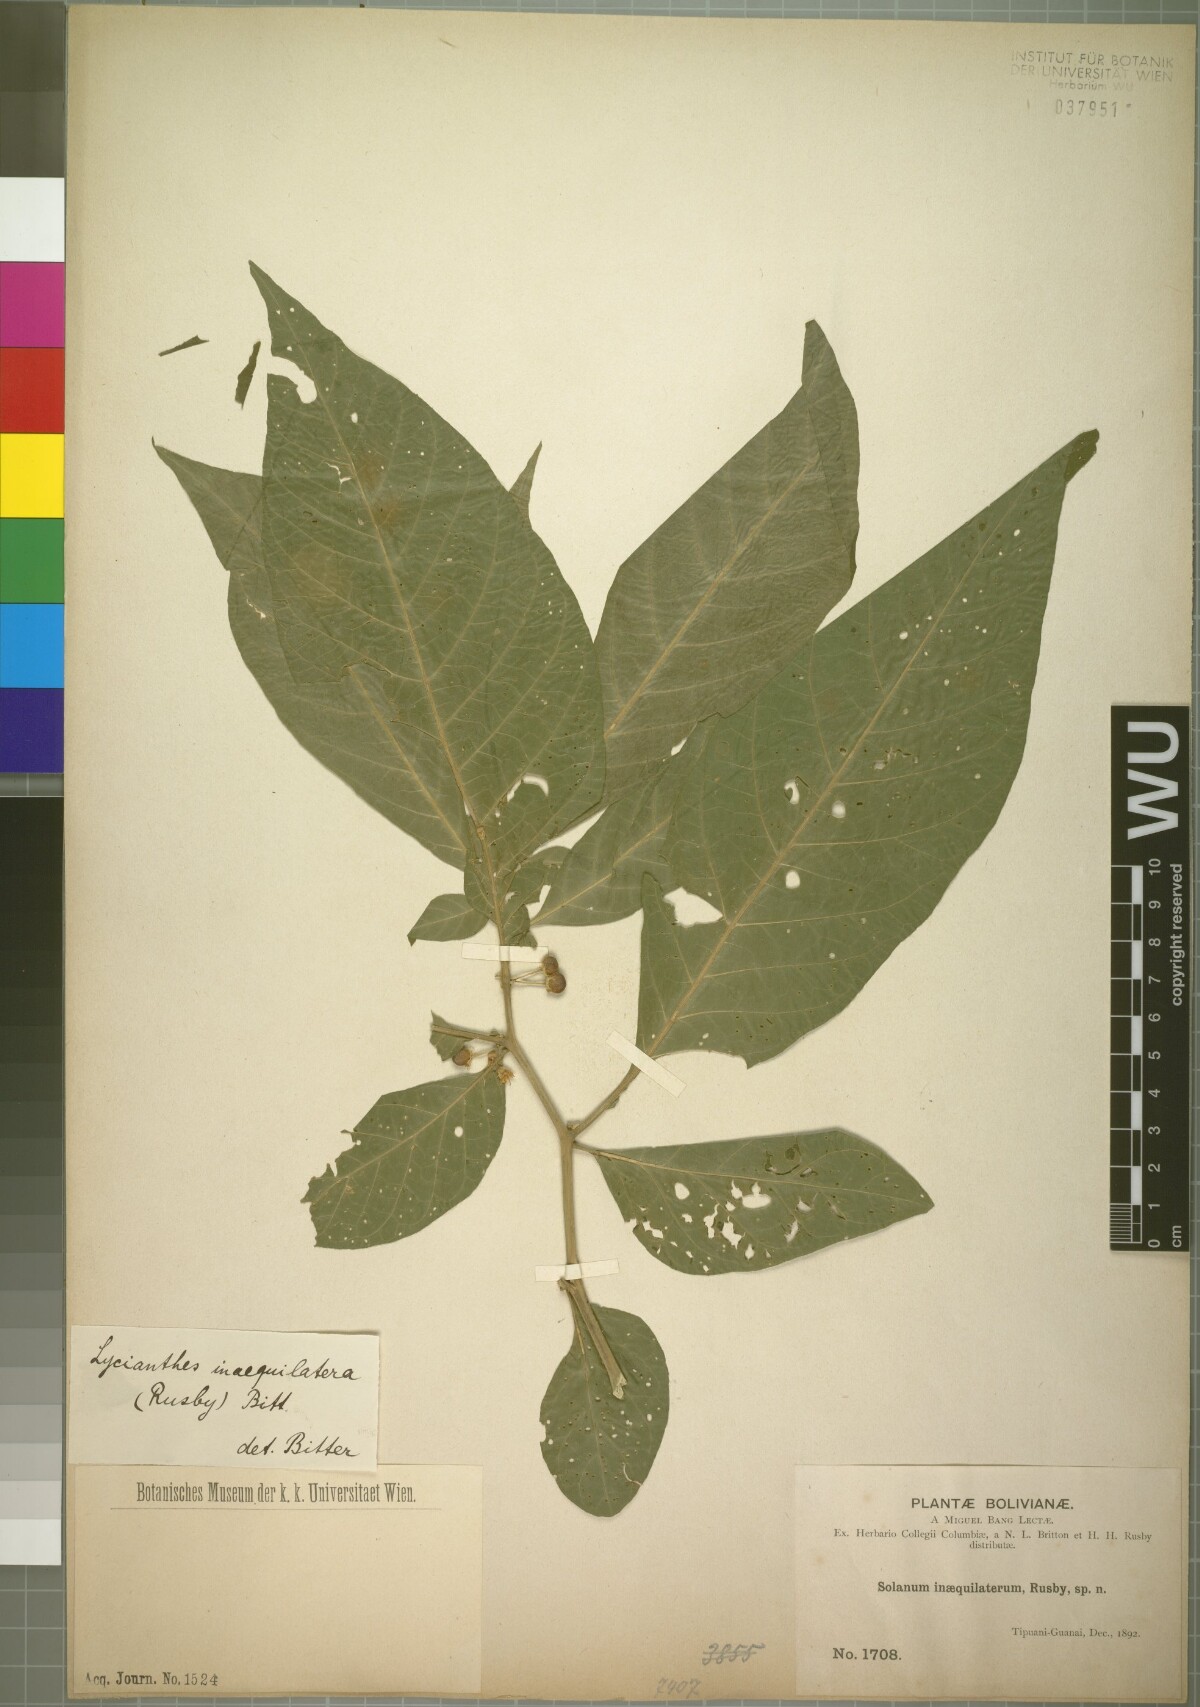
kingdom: Plantae
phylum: Tracheophyta
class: Magnoliopsida
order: Solanales
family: Solanaceae
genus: Lycianthes
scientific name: Lycianthes inaequilatera
